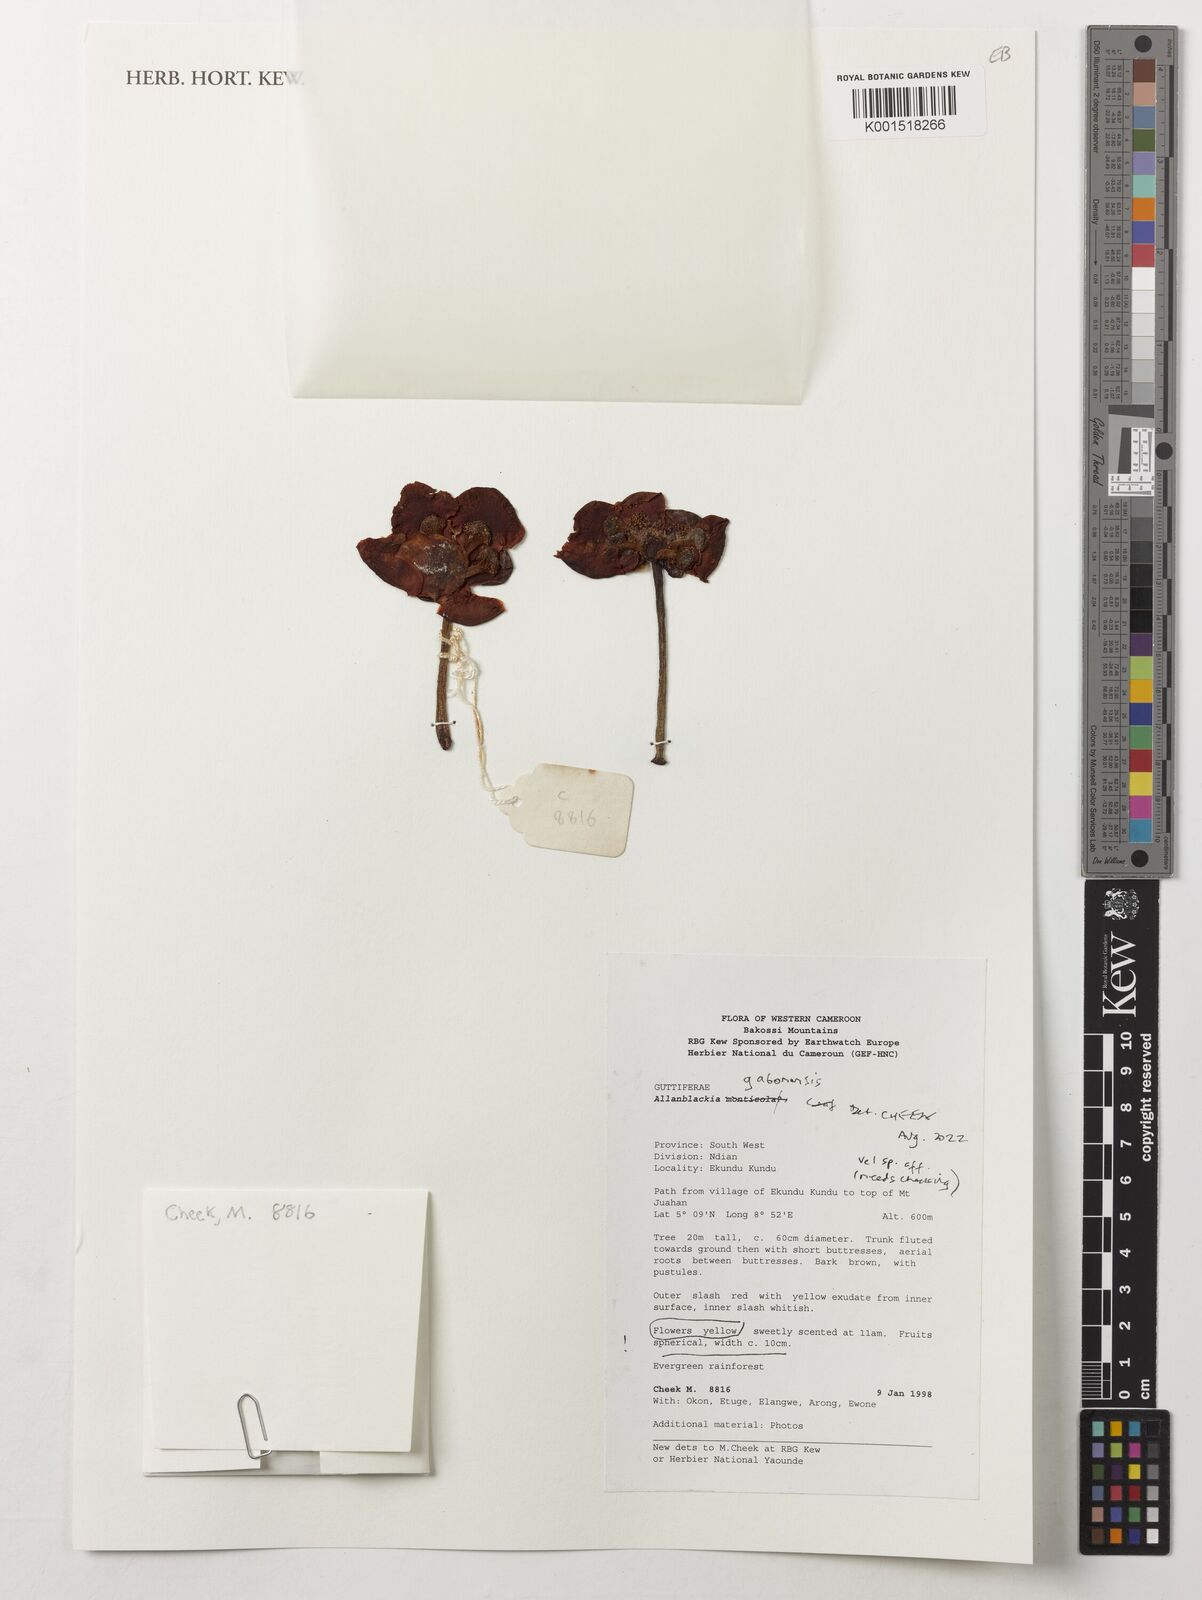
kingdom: Plantae
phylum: Tracheophyta
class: Magnoliopsida
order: Malpighiales
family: Clusiaceae
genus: Allanblackia
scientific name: Allanblackia gabonensis
